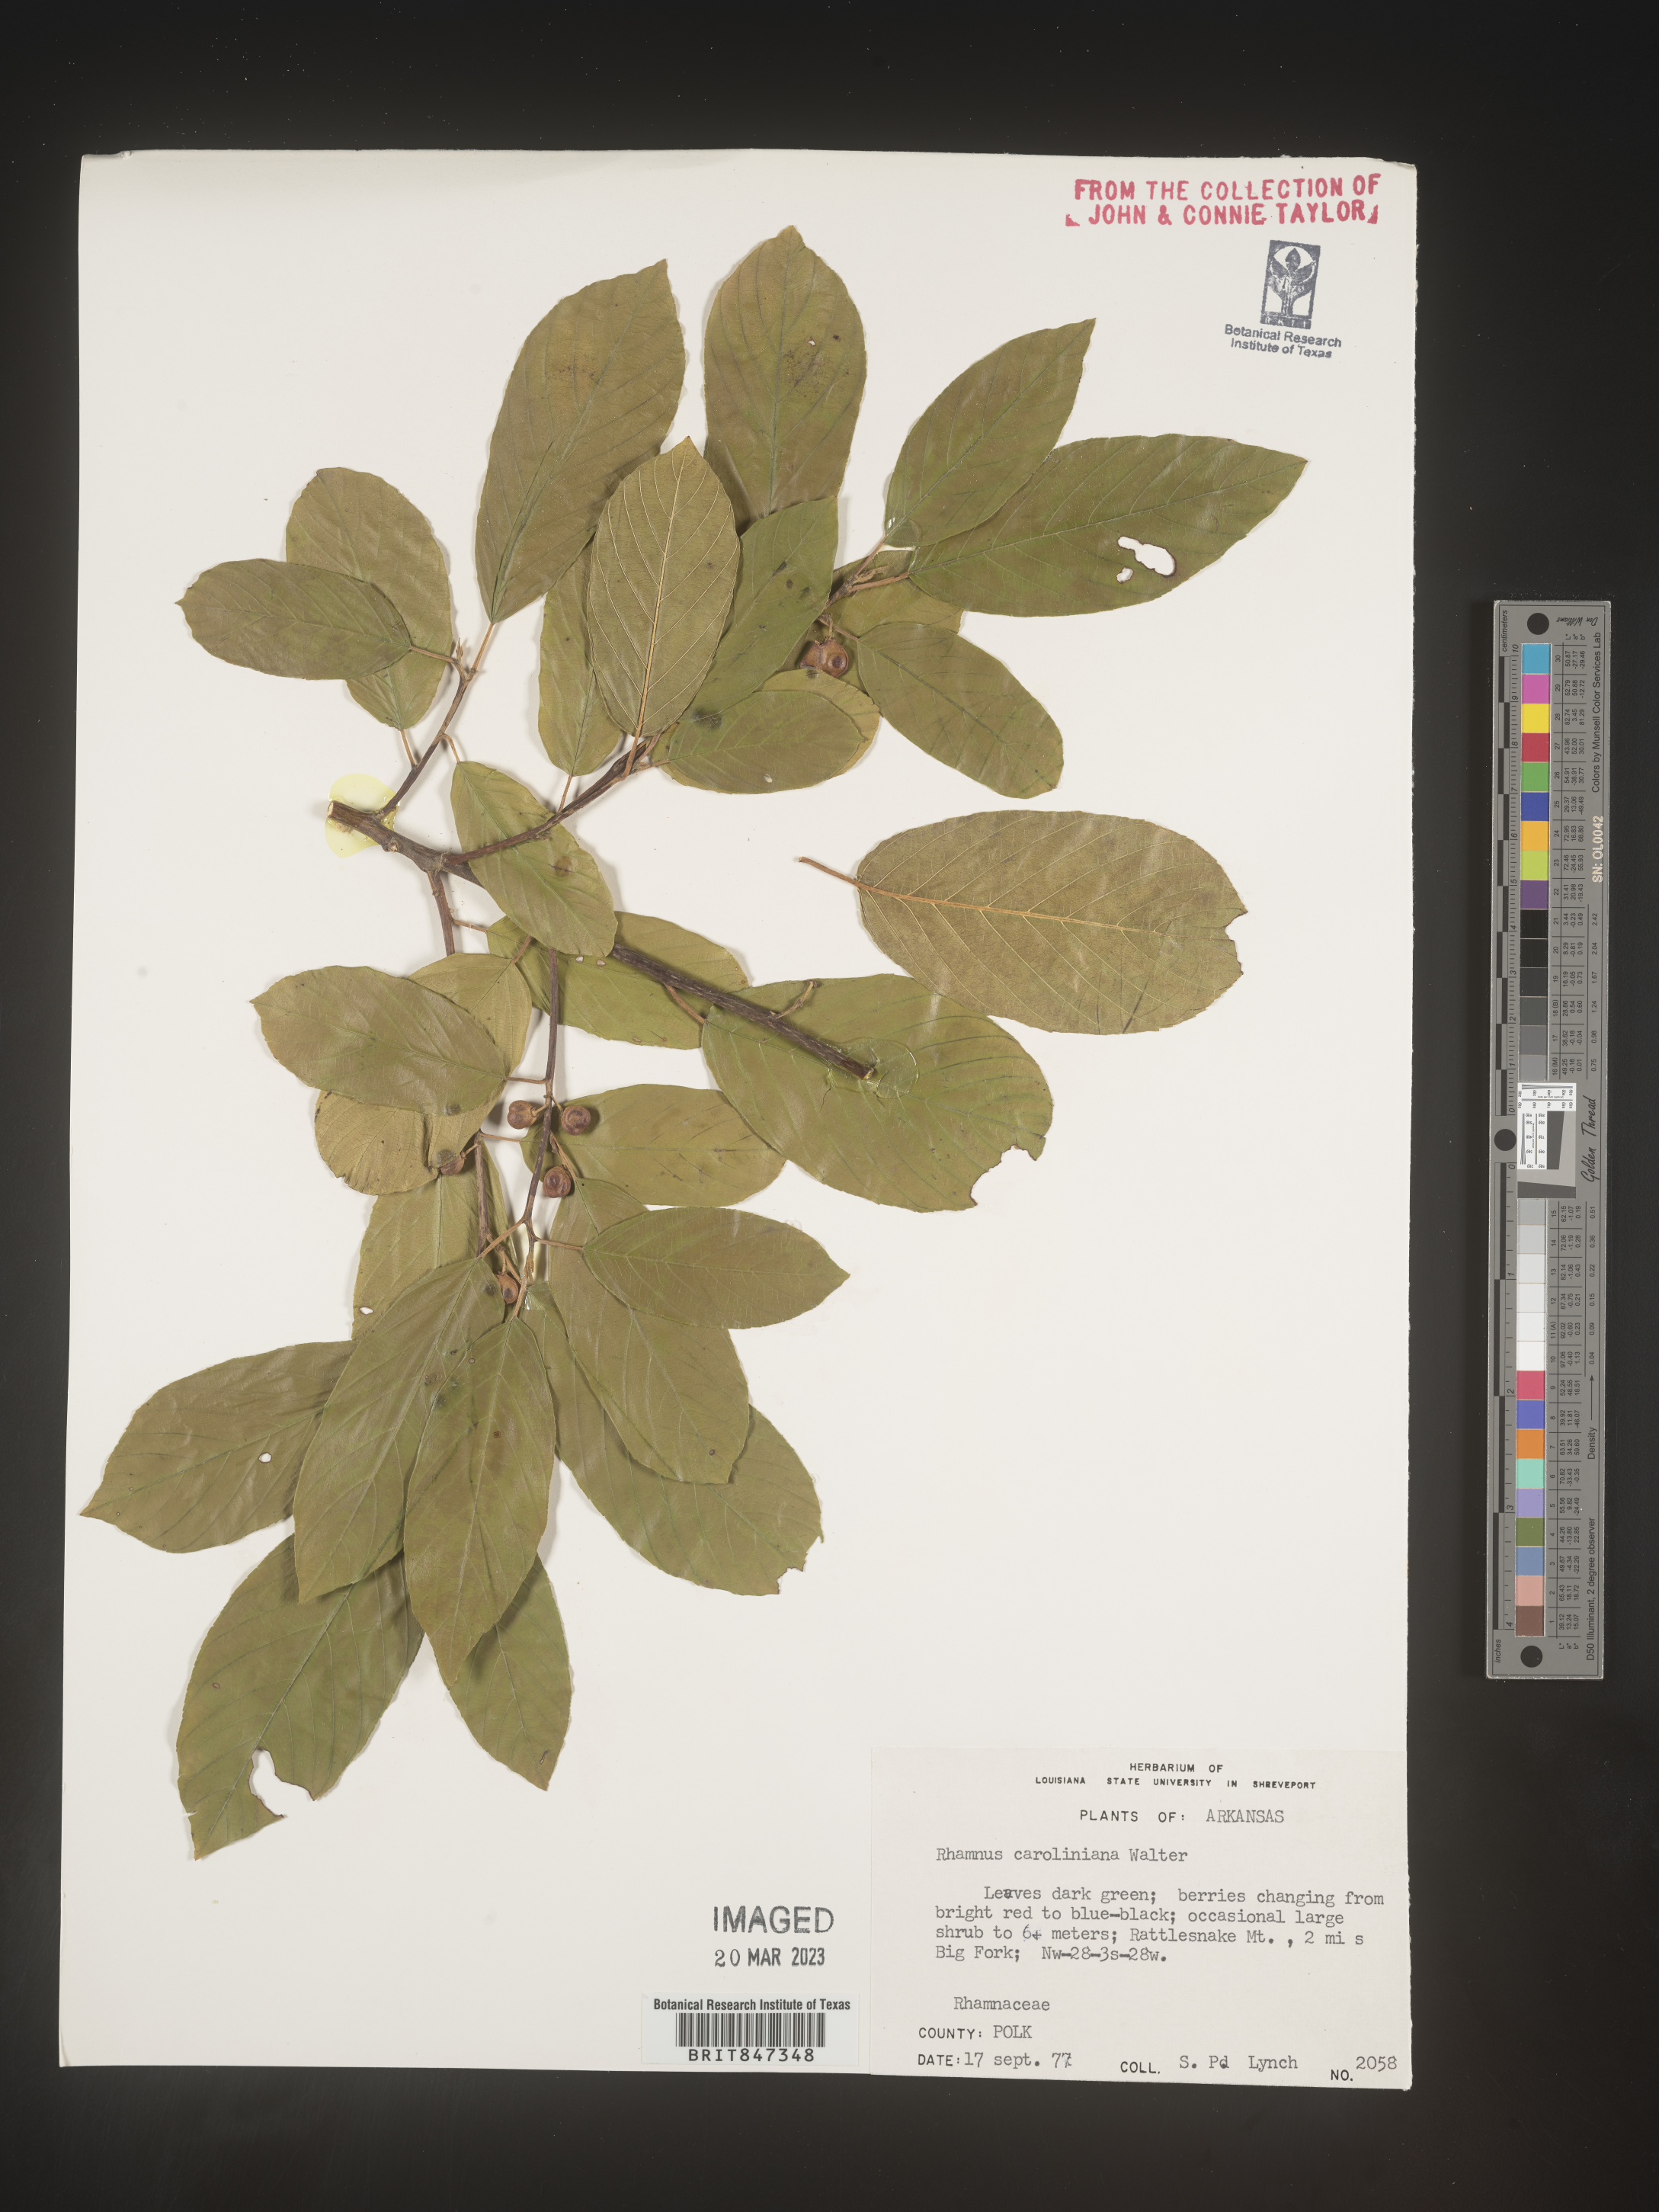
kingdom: Plantae
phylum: Tracheophyta
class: Magnoliopsida
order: Rosales
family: Rhamnaceae
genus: Frangula
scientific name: Frangula caroliniana
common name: Carolina buckthorn
